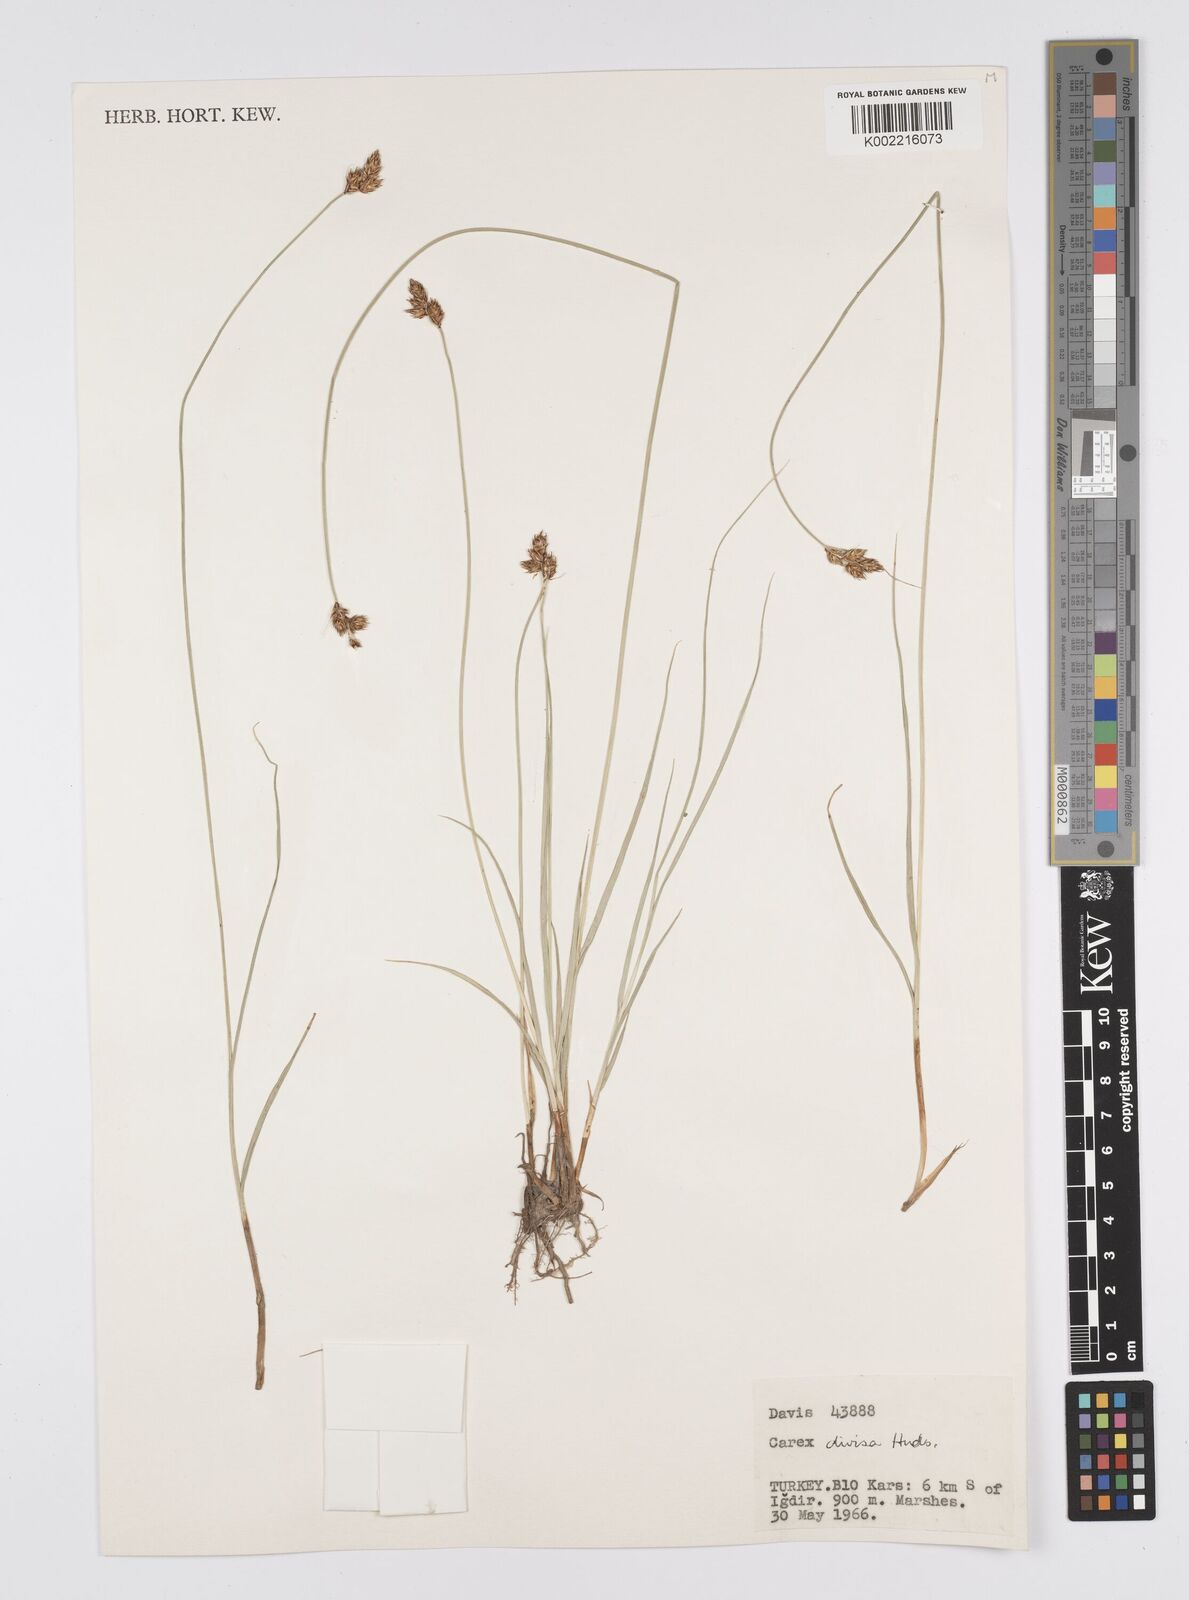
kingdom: Plantae
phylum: Tracheophyta
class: Liliopsida
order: Poales
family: Cyperaceae
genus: Carex
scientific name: Carex divisa
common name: Divided sedge
